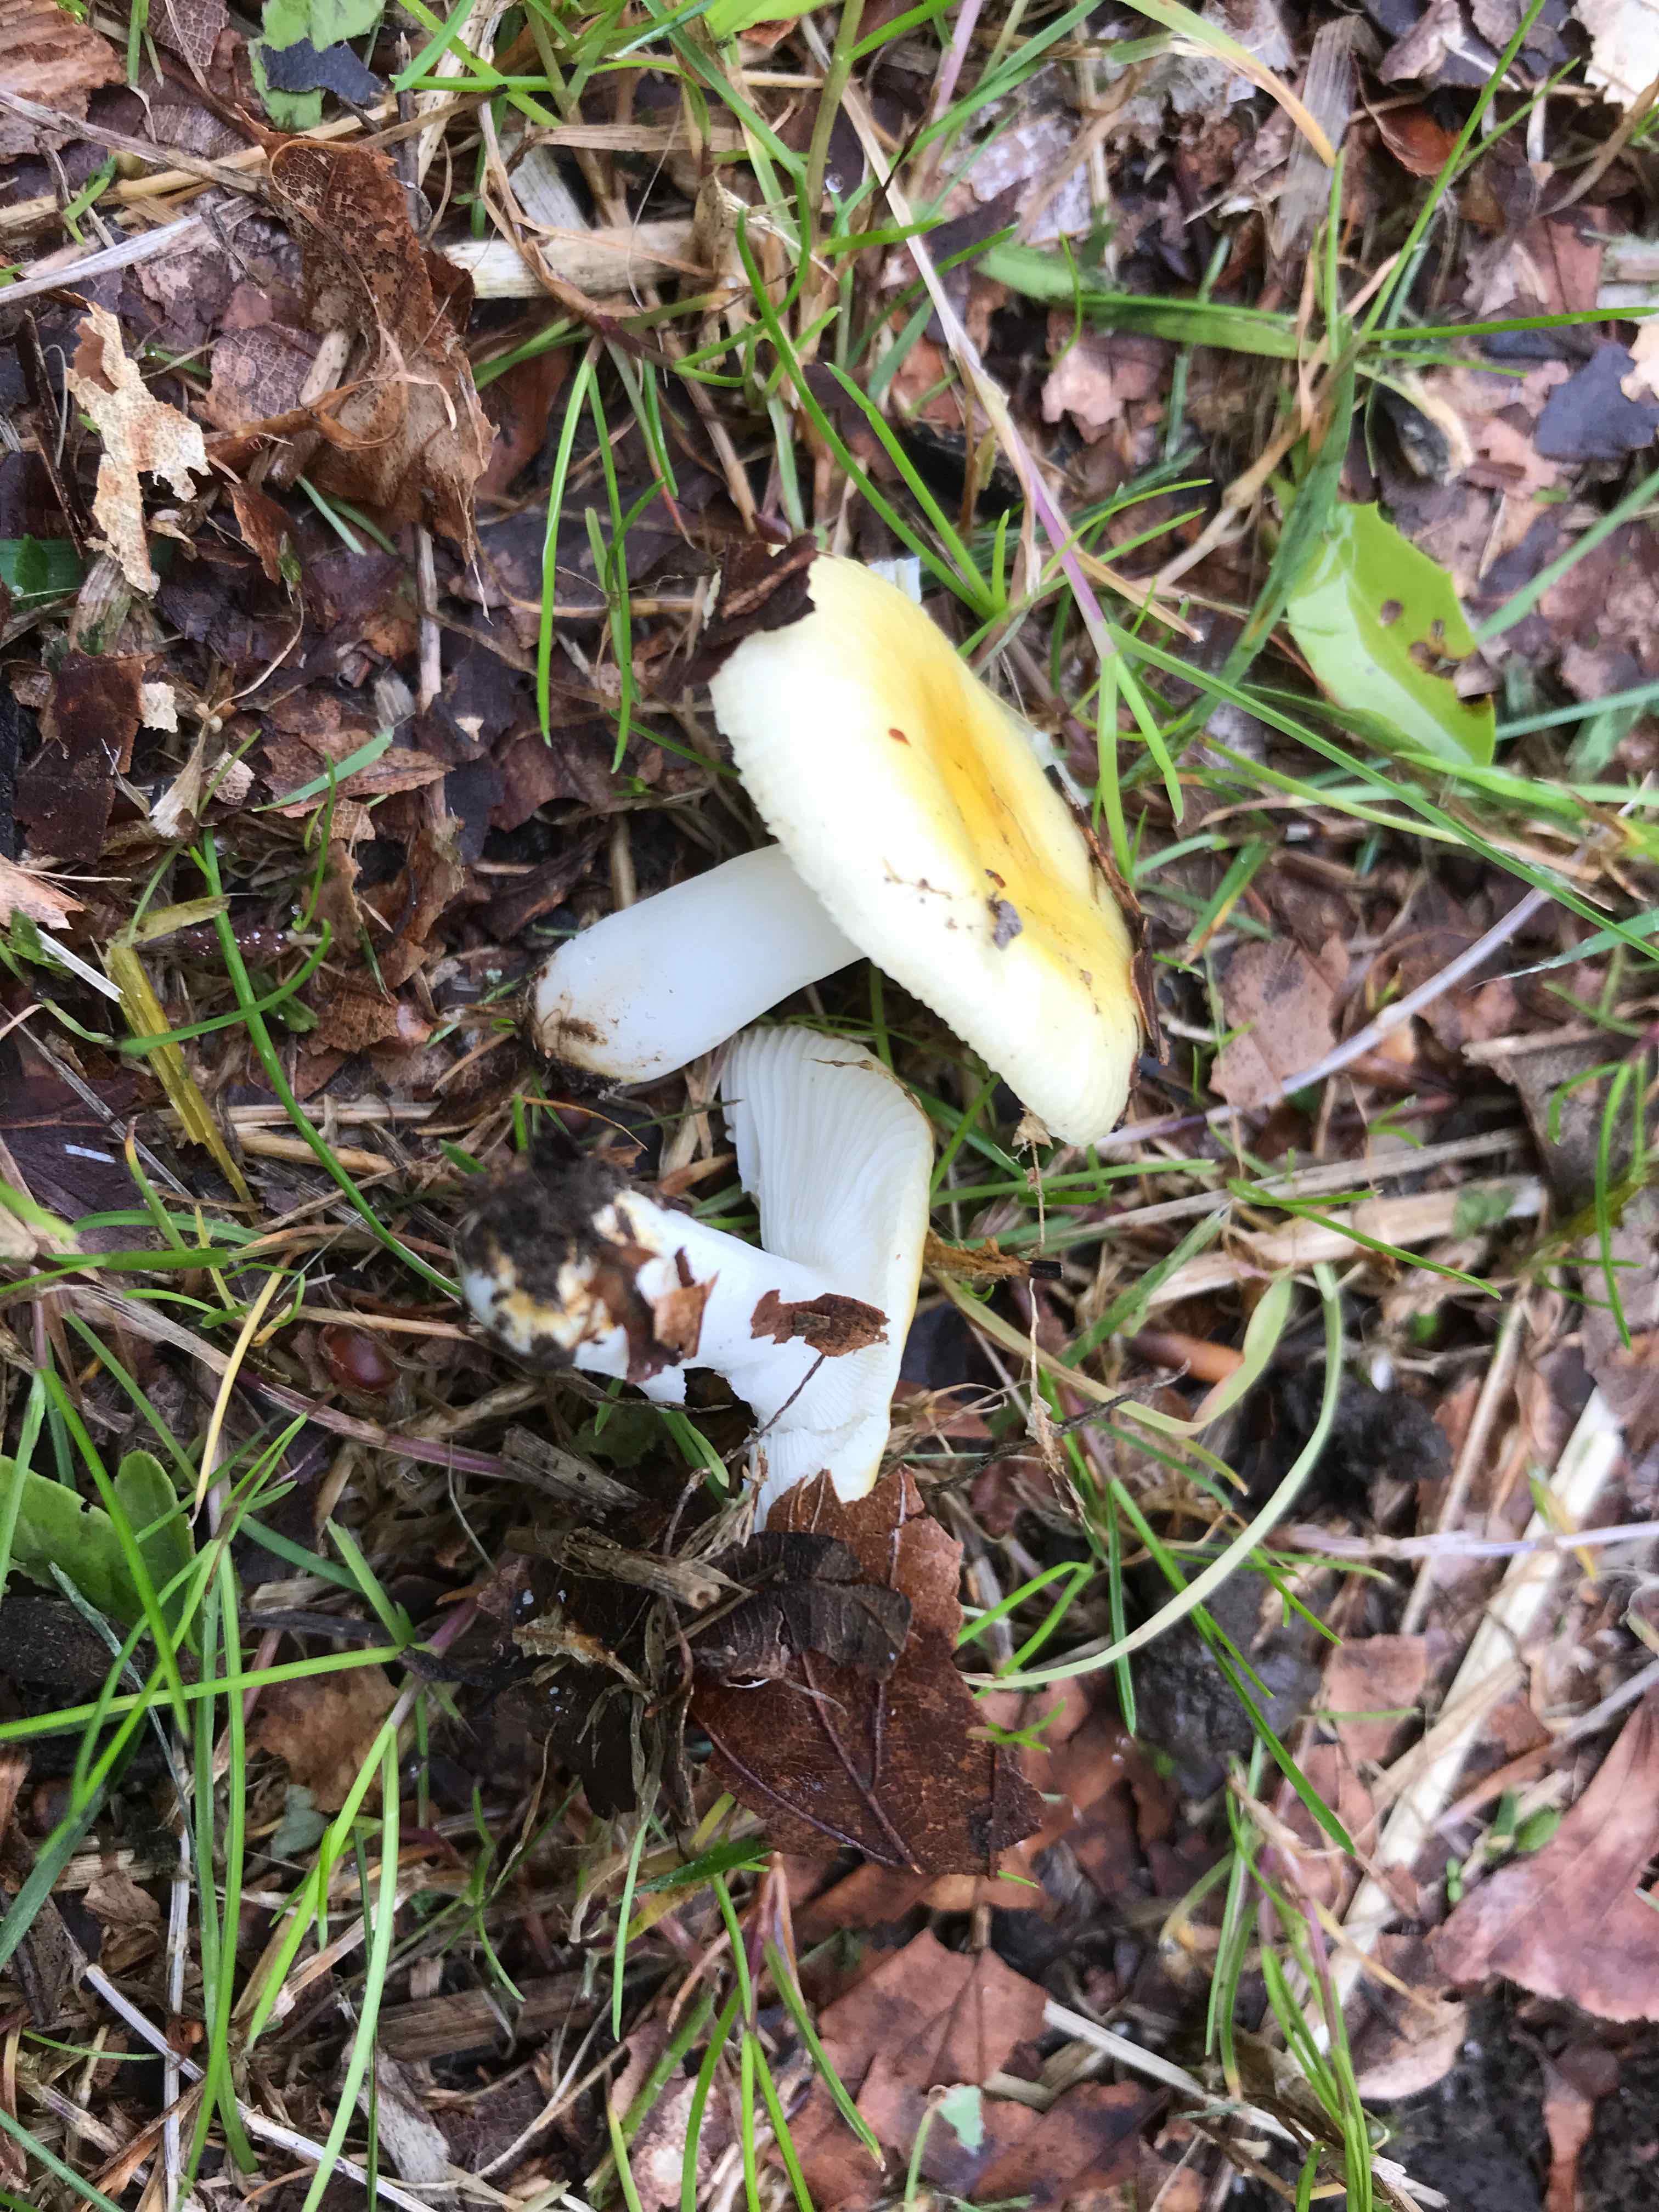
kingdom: Fungi
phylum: Basidiomycota
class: Agaricomycetes
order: Russulales
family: Russulaceae
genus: Russula
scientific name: Russula solaris
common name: sol-skørhat
